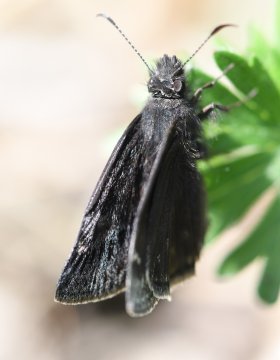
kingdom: Animalia
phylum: Arthropoda
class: Insecta
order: Lepidoptera
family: Hesperiidae
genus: Erynnis
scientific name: Erynnis
